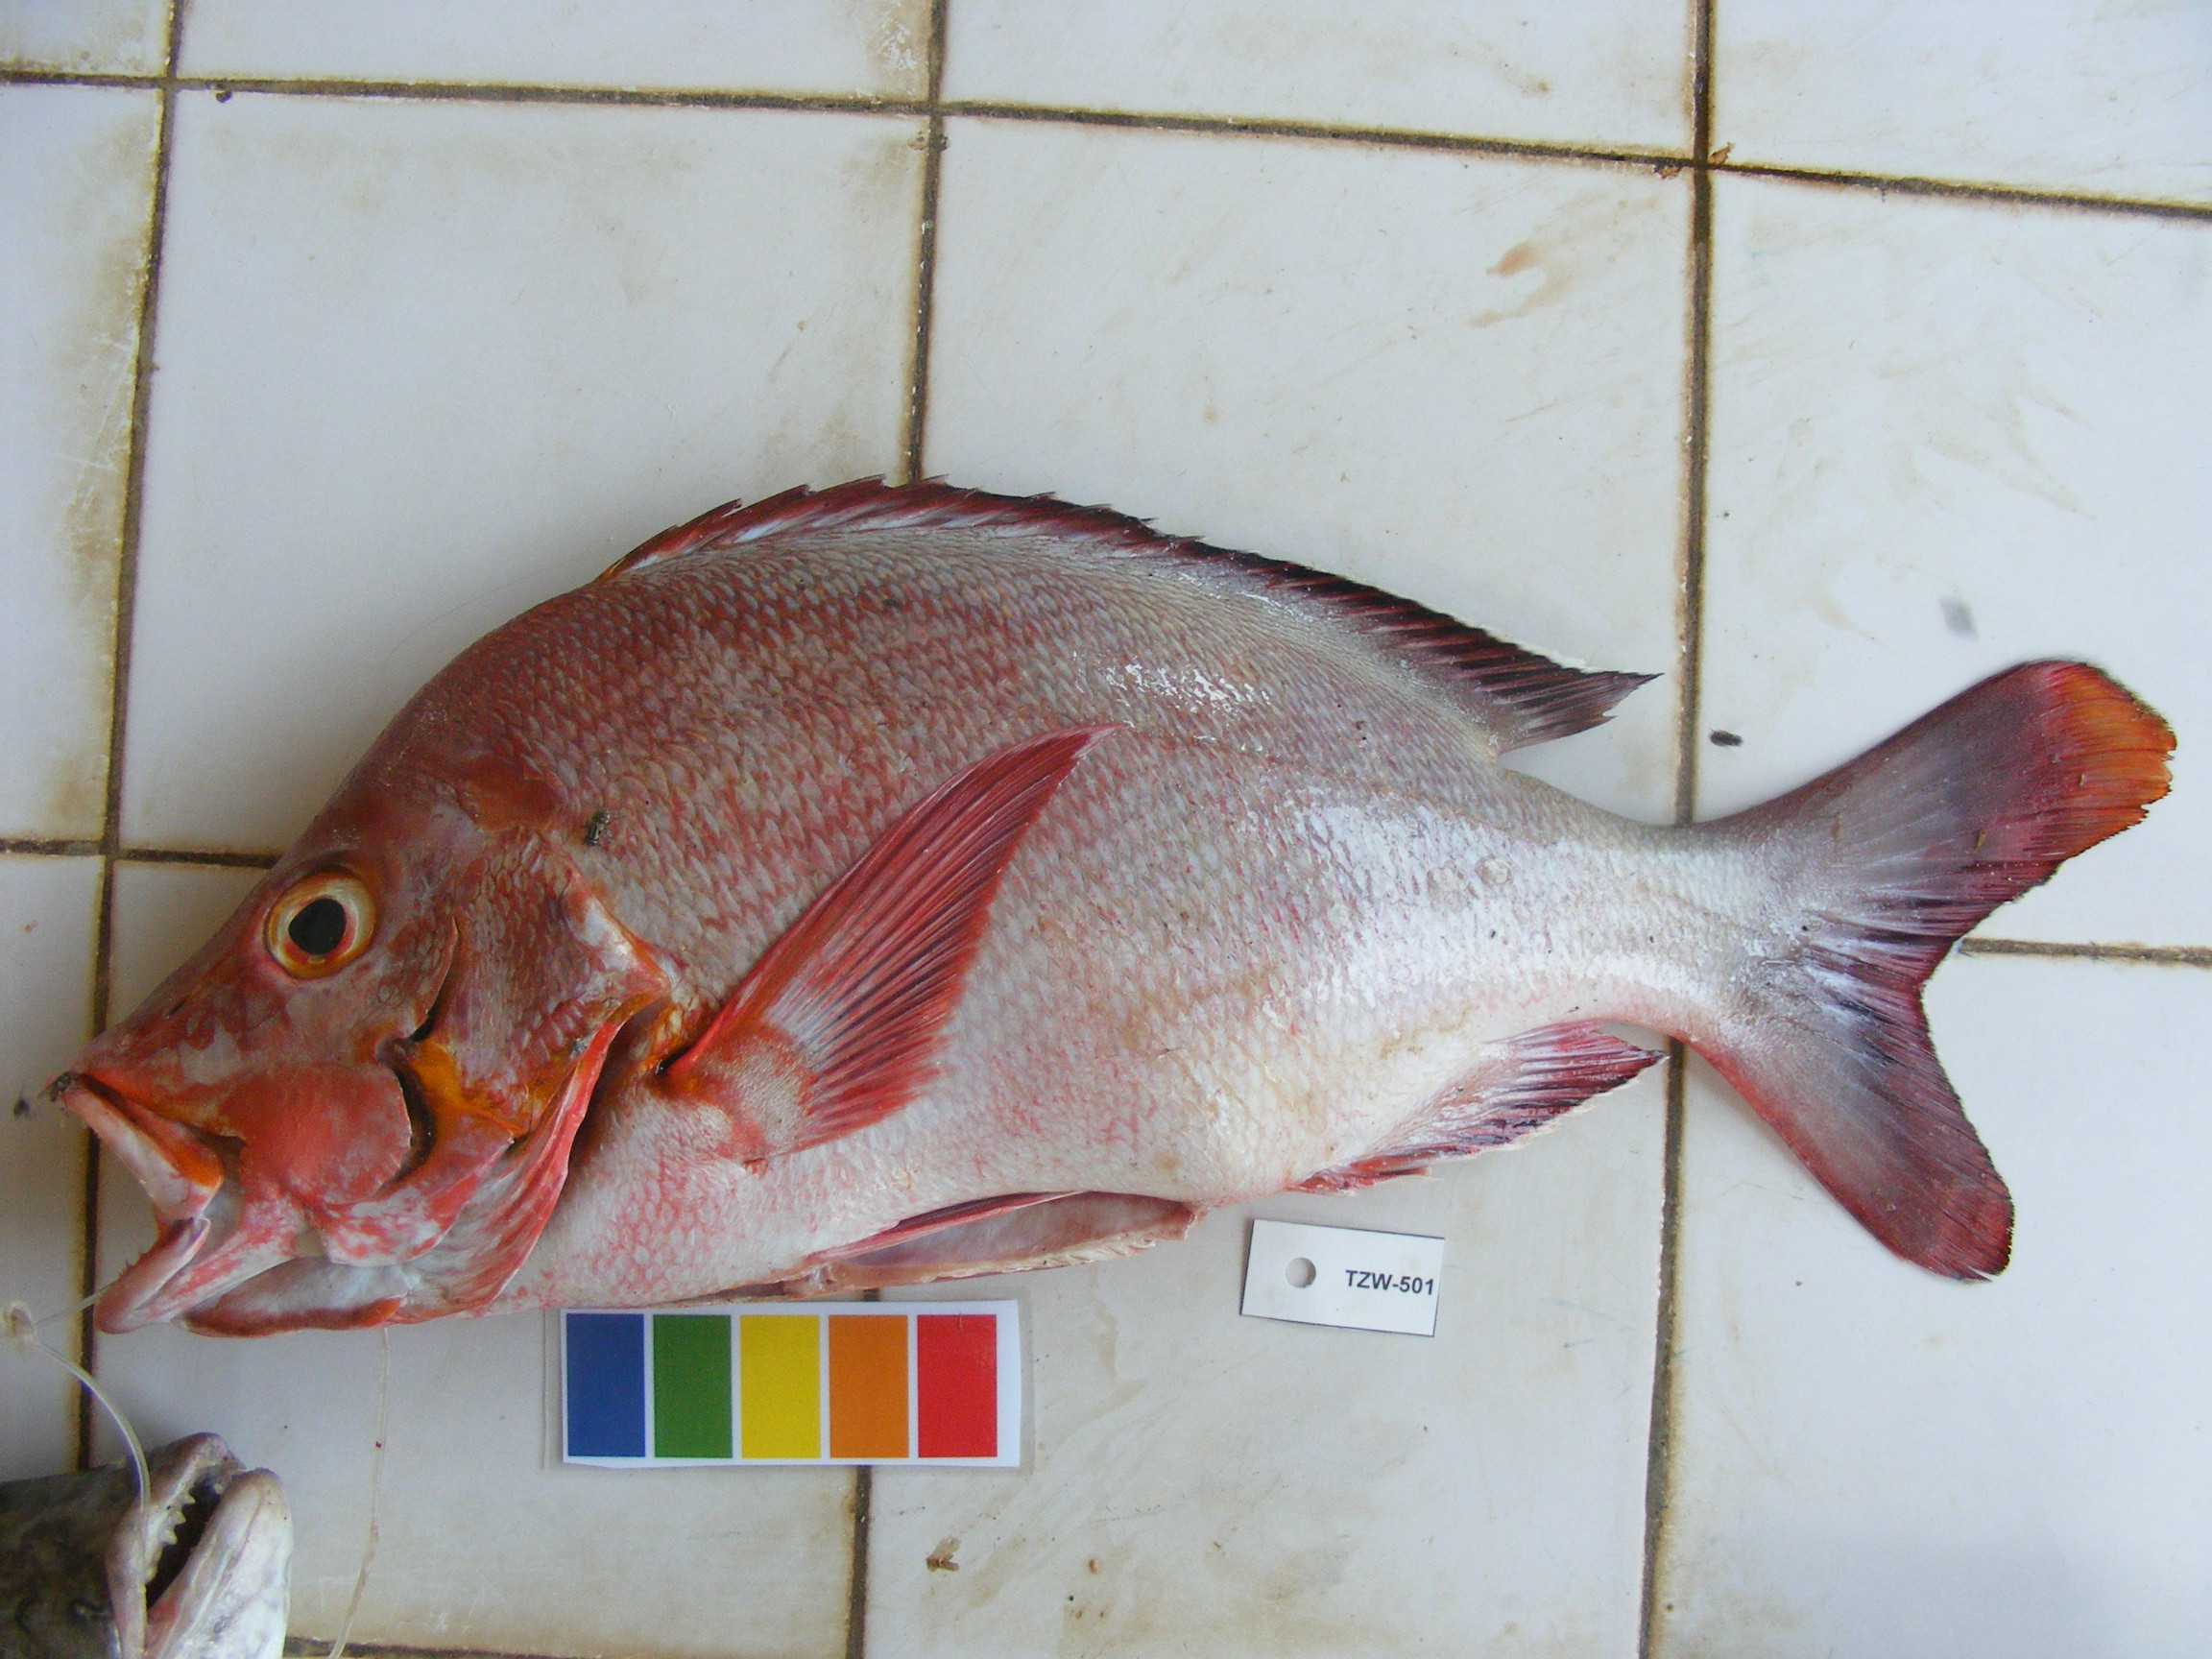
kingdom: Animalia
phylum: Chordata
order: Perciformes
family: Lutjanidae
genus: Lutjanus
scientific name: Lutjanus gibbus
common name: Humpback snapper
